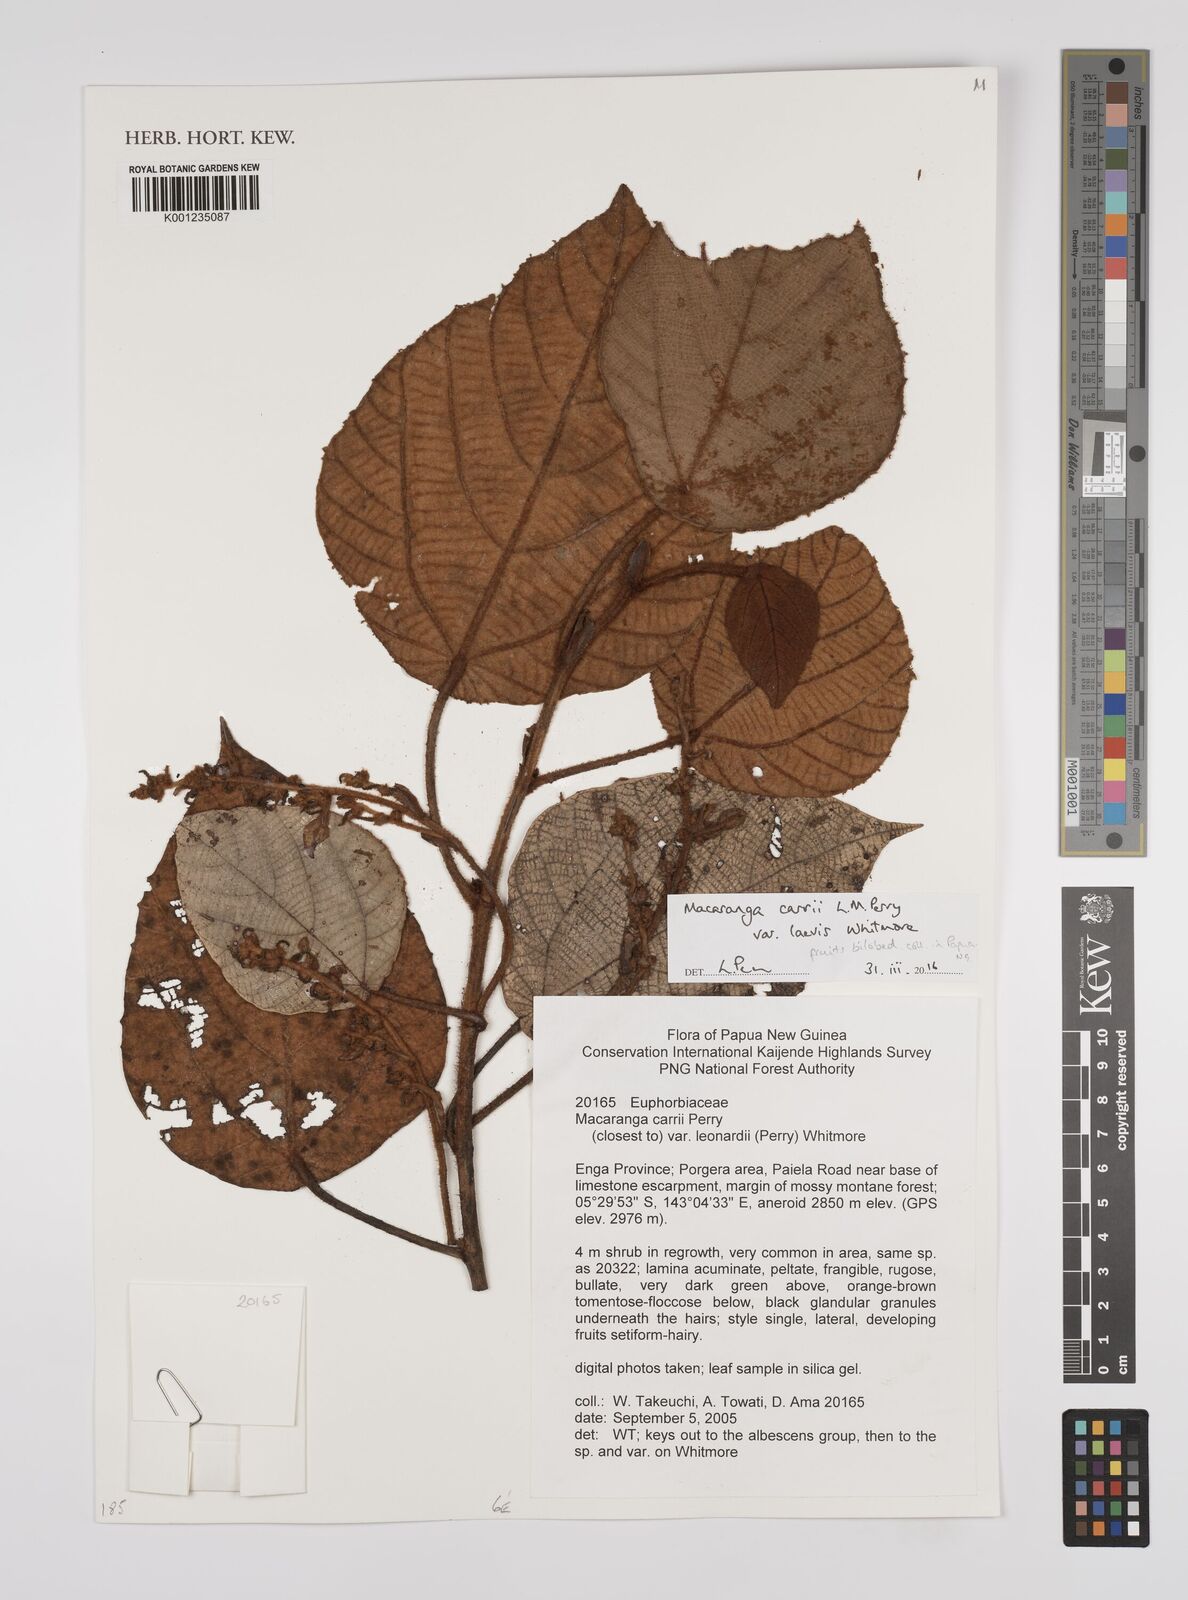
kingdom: Plantae
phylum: Tracheophyta
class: Magnoliopsida
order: Malpighiales
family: Euphorbiaceae
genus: Macaranga
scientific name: Macaranga carrii
